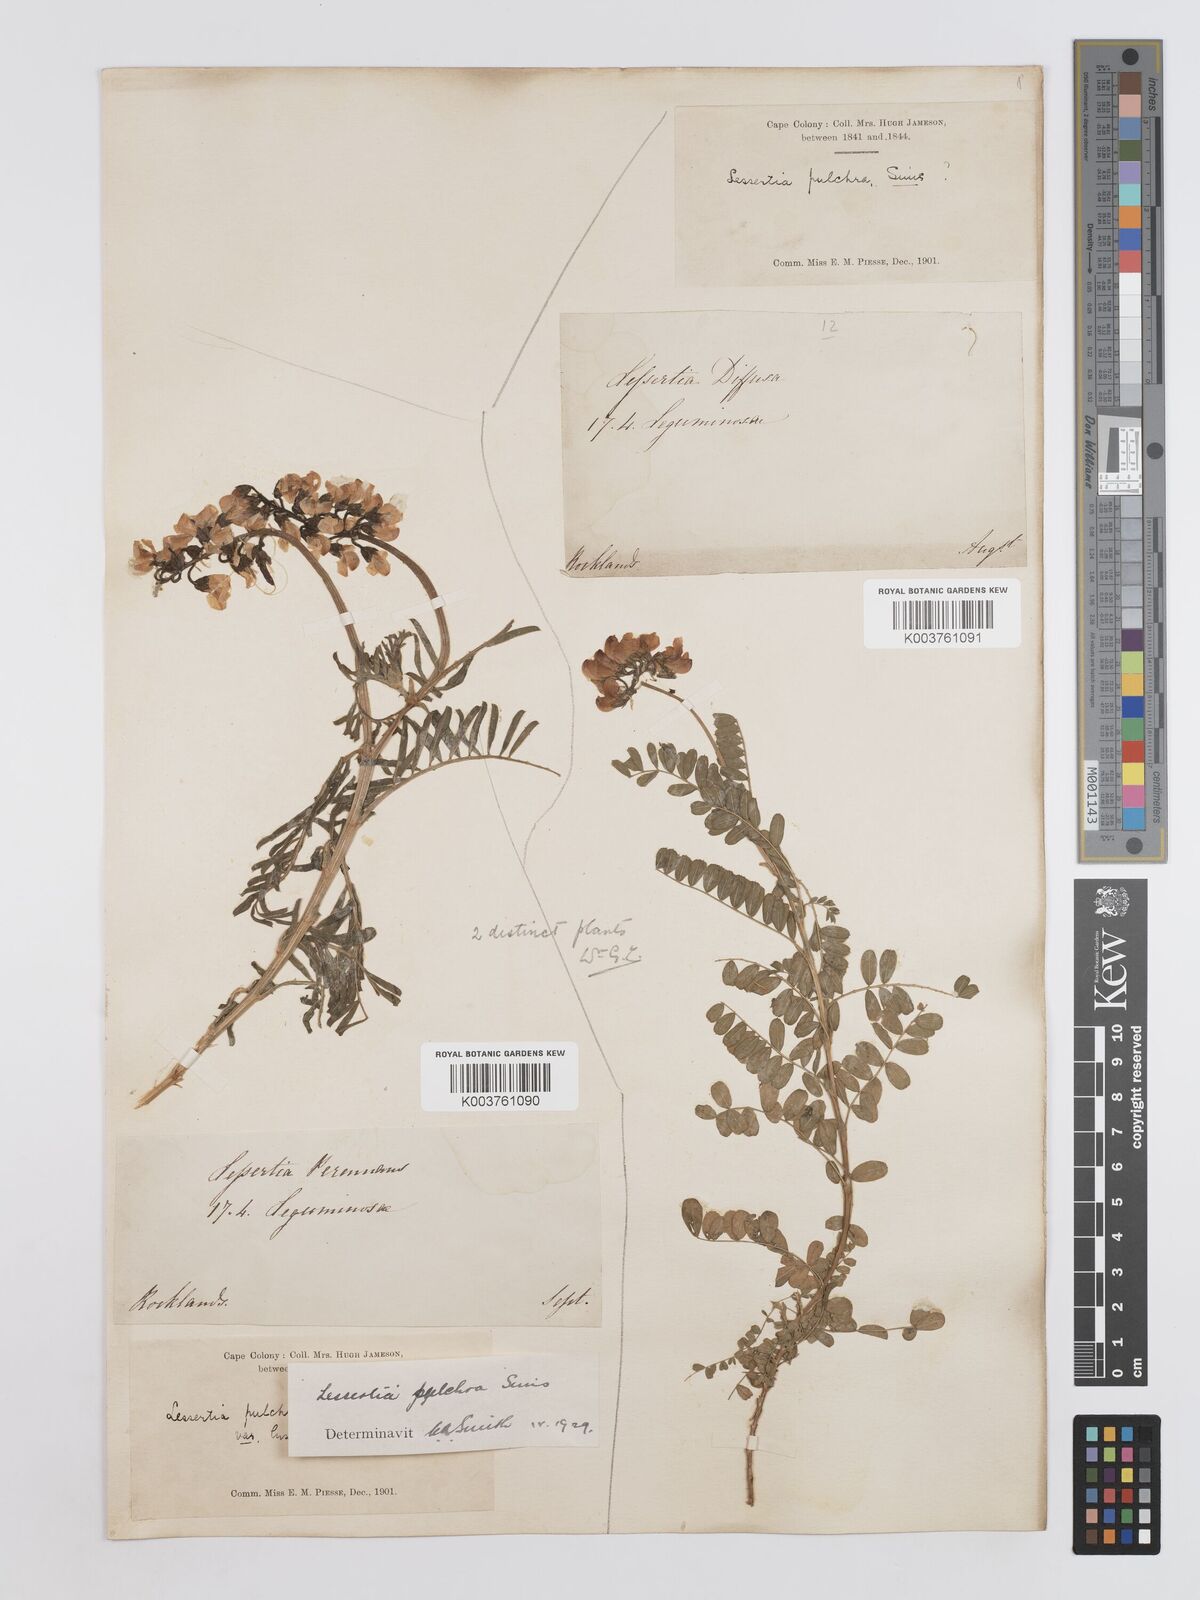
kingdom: Plantae
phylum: Tracheophyta
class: Magnoliopsida
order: Fabales
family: Fabaceae
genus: Lessertia
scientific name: Lessertia capensis
